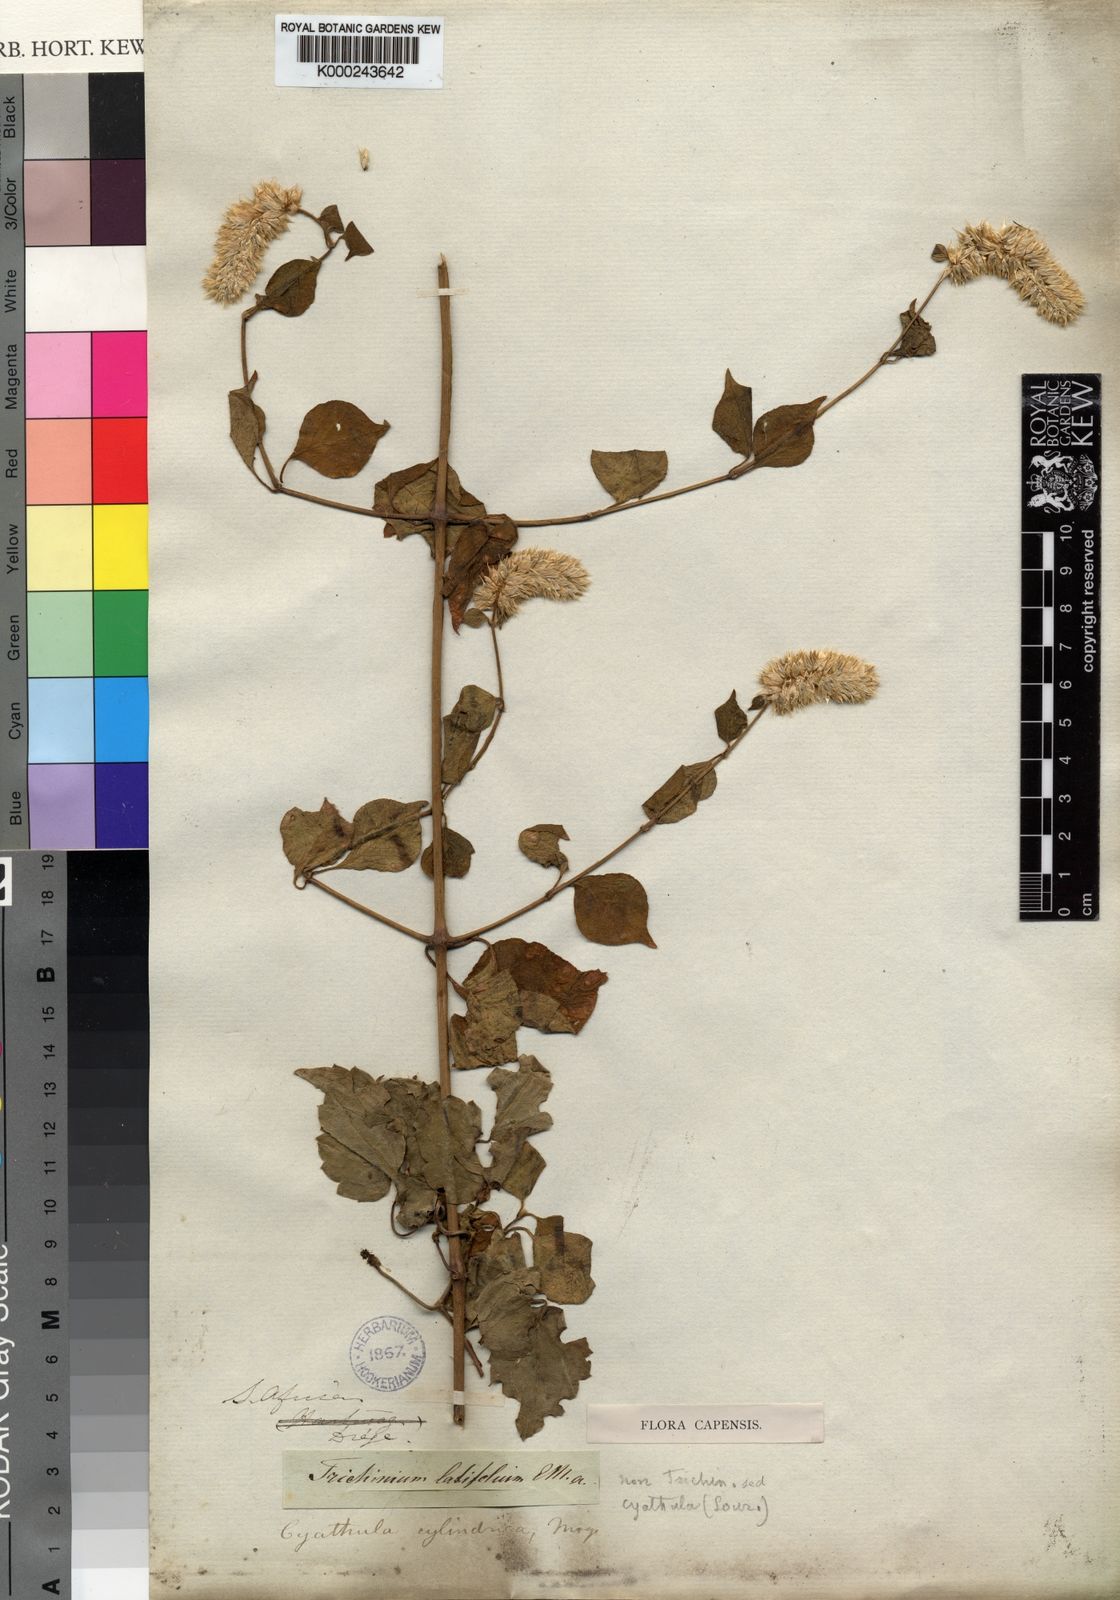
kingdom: Plantae
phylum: Tracheophyta
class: Magnoliopsida
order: Caryophyllales
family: Amaranthaceae
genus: Cyathula
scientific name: Cyathula cylindrica
